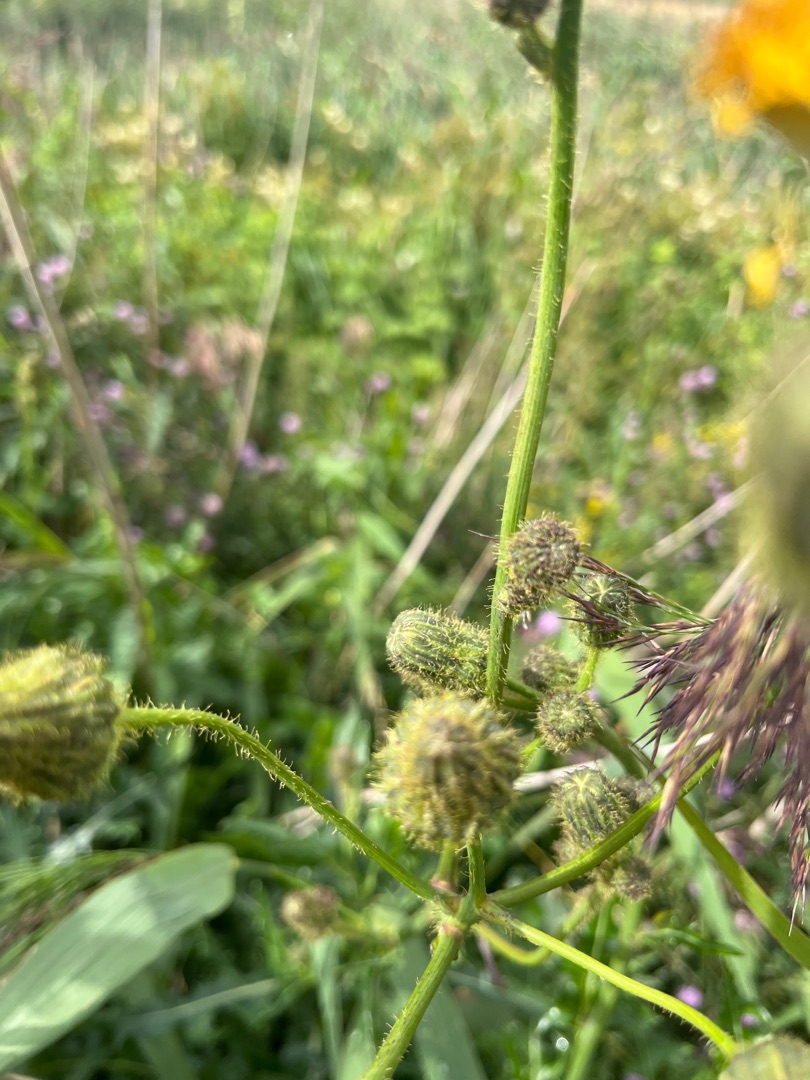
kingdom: Plantae
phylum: Tracheophyta
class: Magnoliopsida
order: Asterales
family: Asteraceae
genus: Sonchus
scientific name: Sonchus arvensis
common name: Ager-svinemælk
